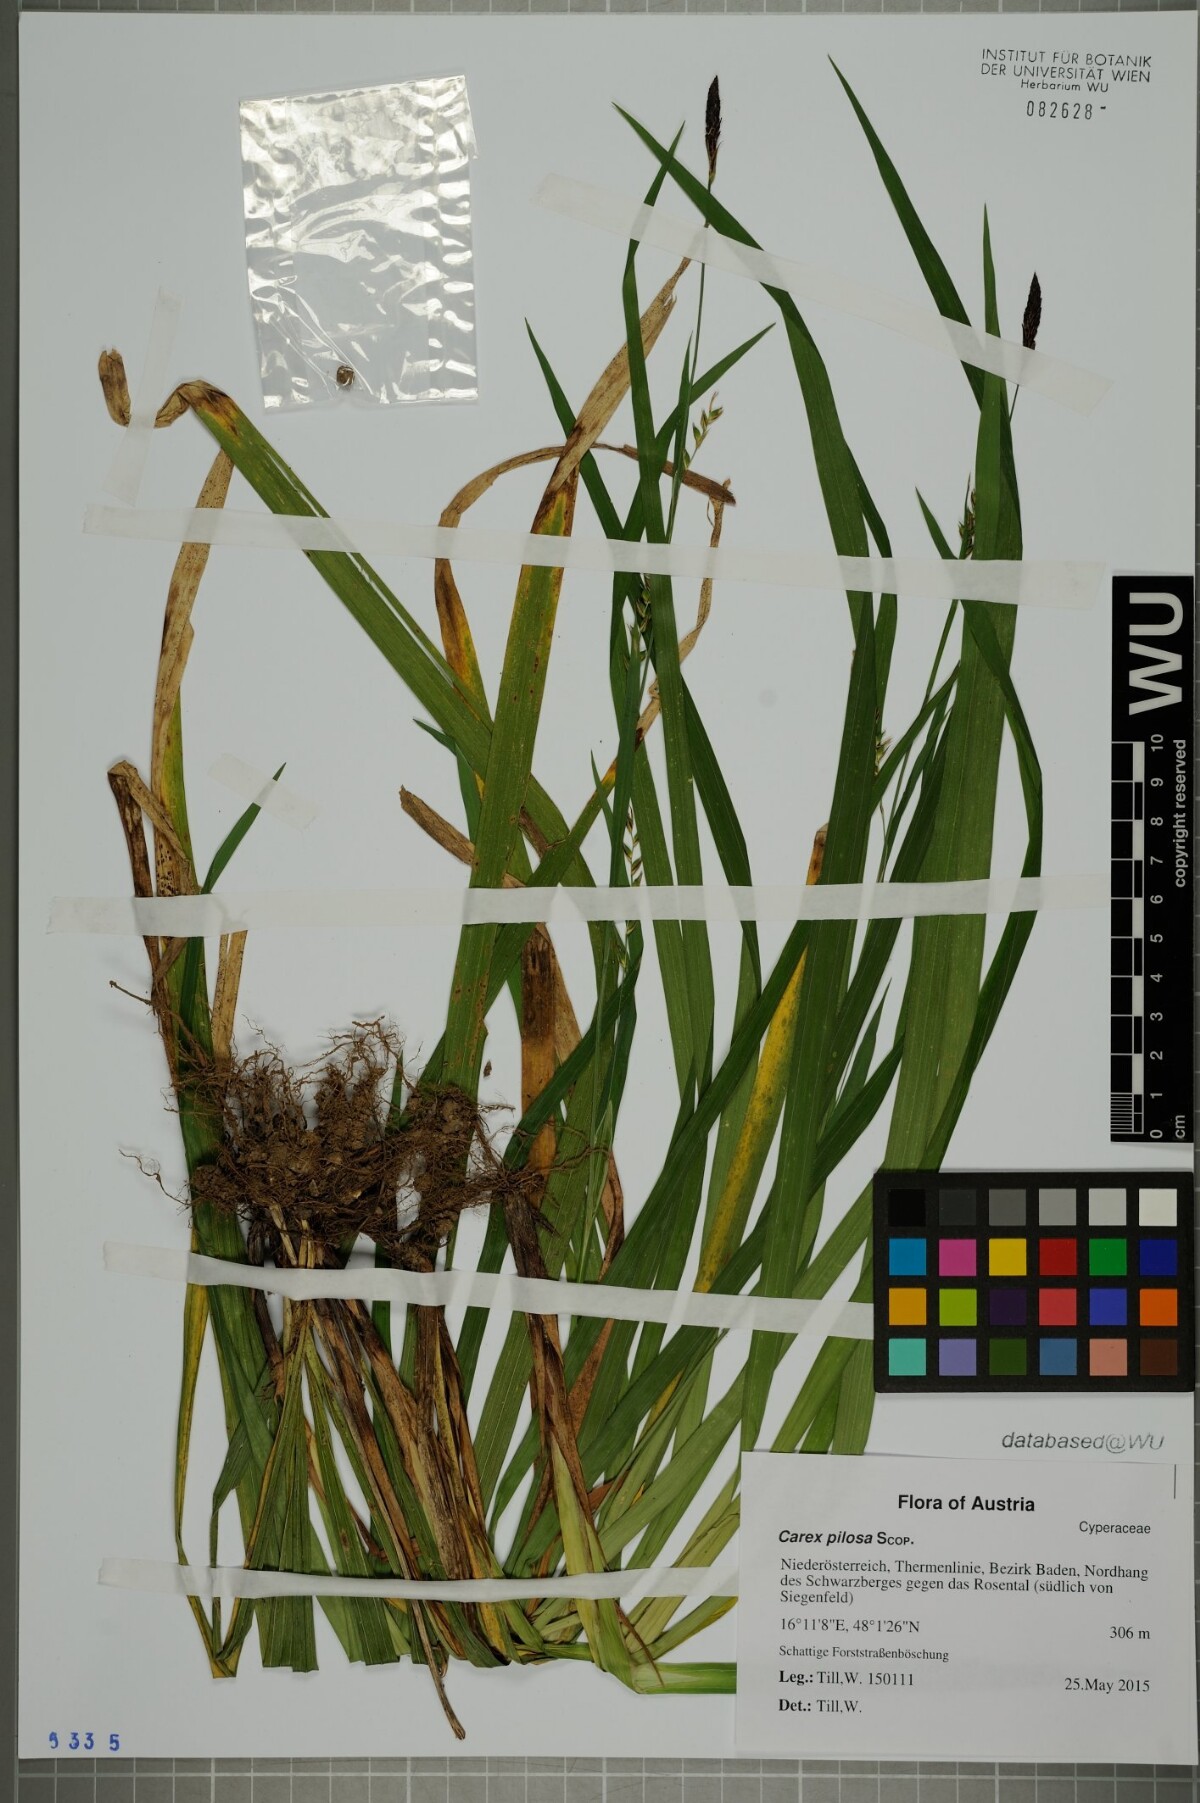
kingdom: Plantae
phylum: Tracheophyta
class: Liliopsida
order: Poales
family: Cyperaceae
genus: Carex
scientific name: Carex pilosa
